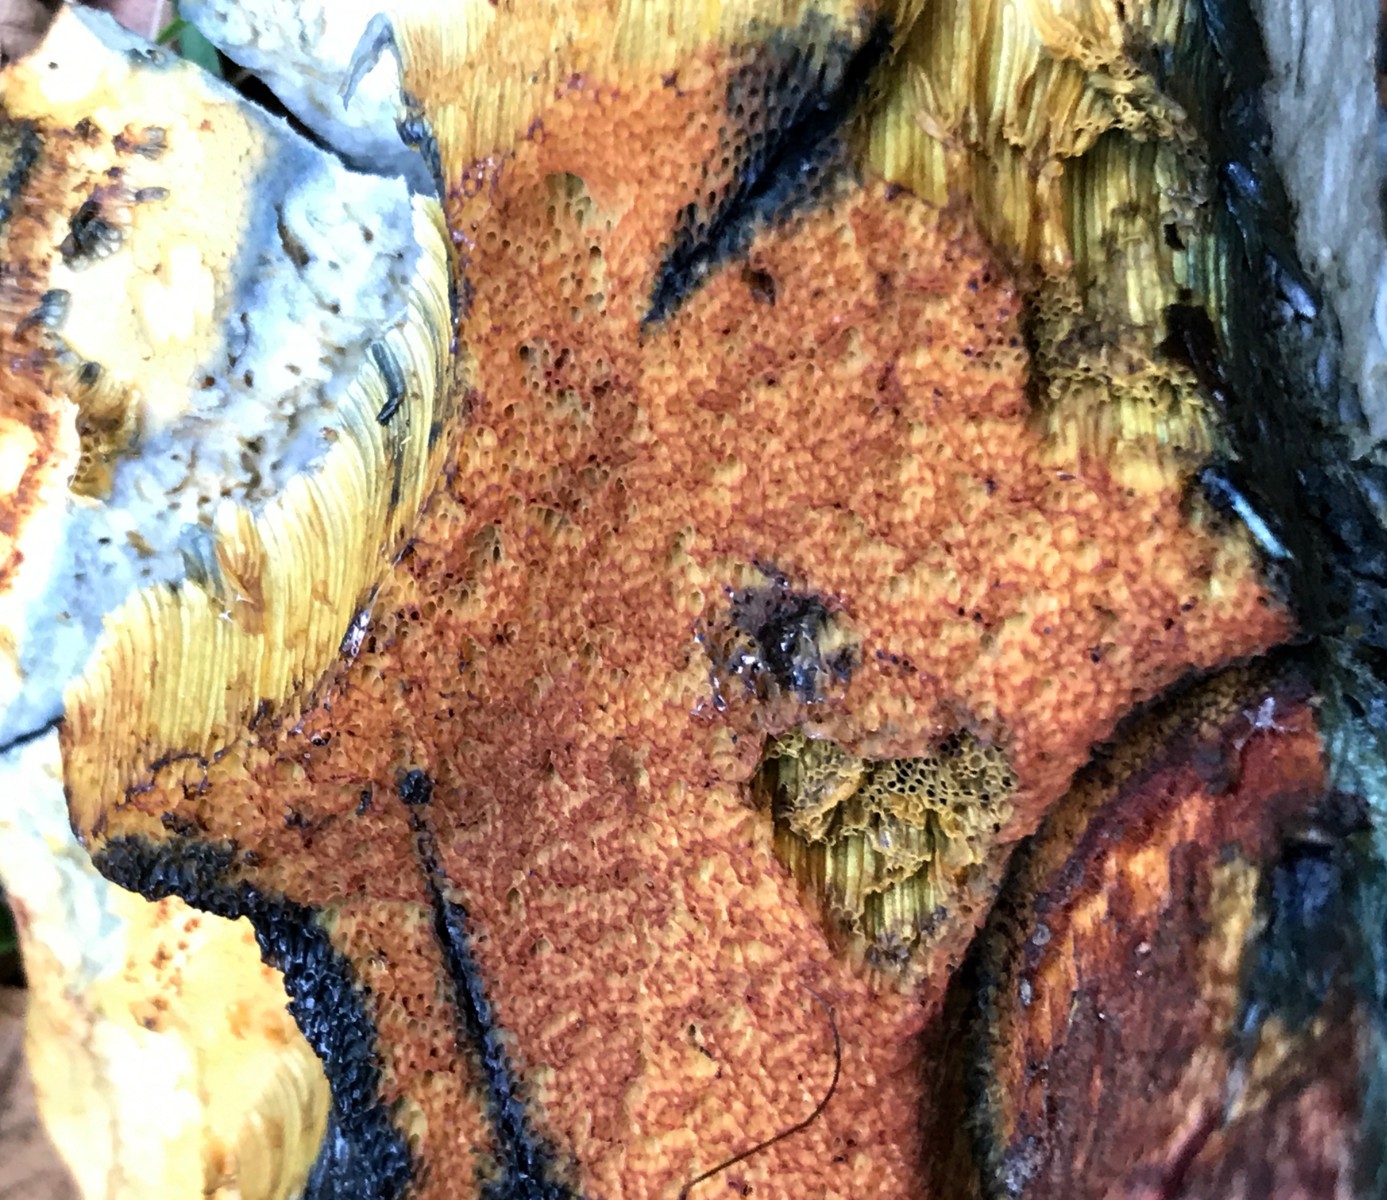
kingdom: Fungi
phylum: Basidiomycota
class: Agaricomycetes
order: Boletales
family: Boletaceae
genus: Suillellus
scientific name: Suillellus luridus
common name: netstokket indigorørhat
